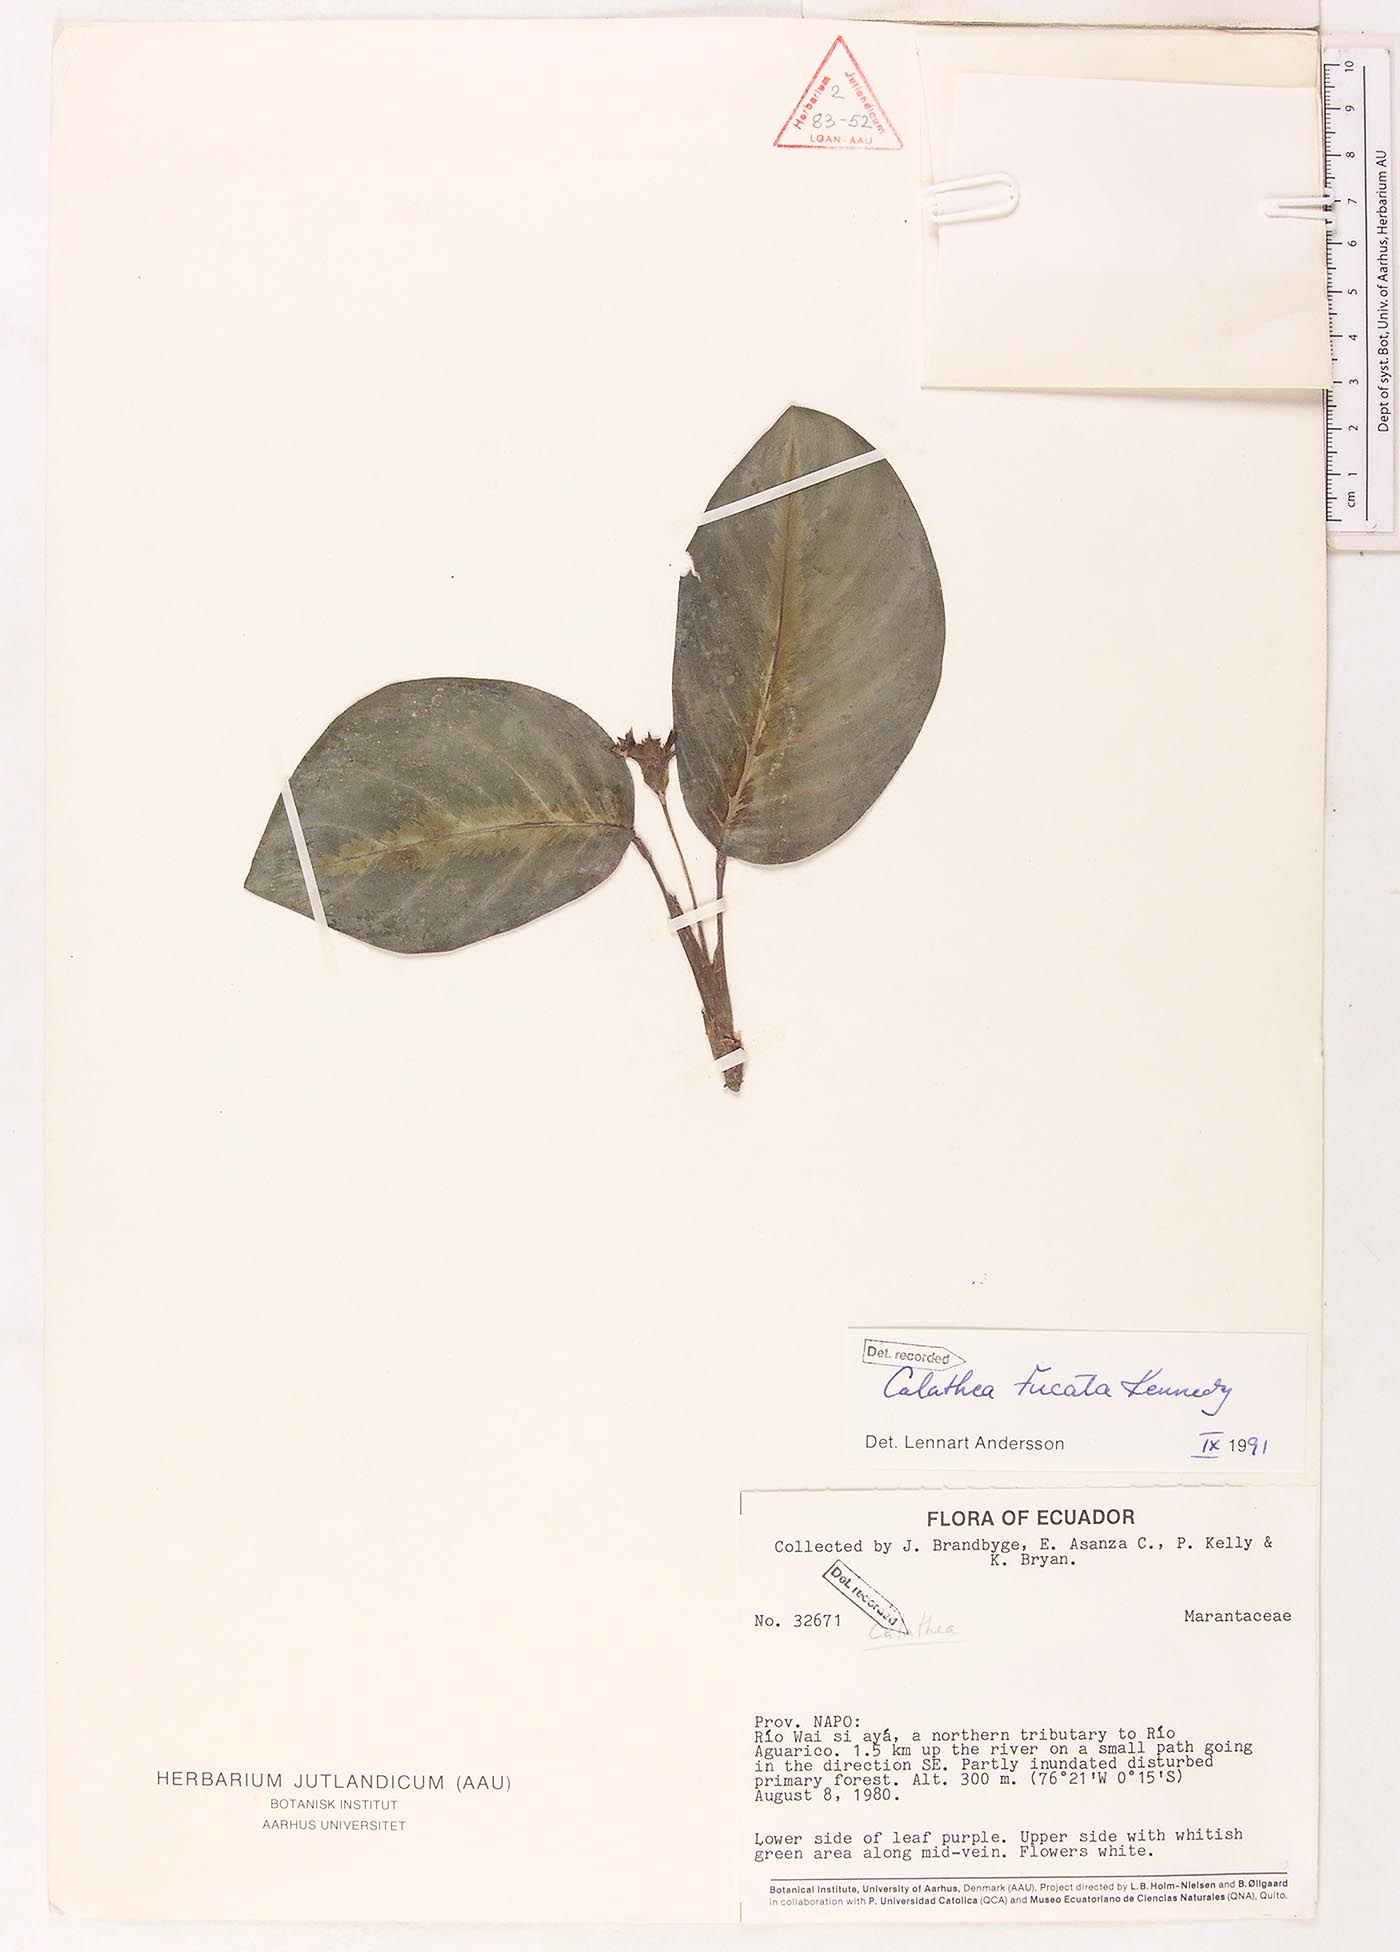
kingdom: Plantae
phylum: Tracheophyta
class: Liliopsida
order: Zingiberales
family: Marantaceae
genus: Goeppertia
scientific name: Goeppertia fucata
